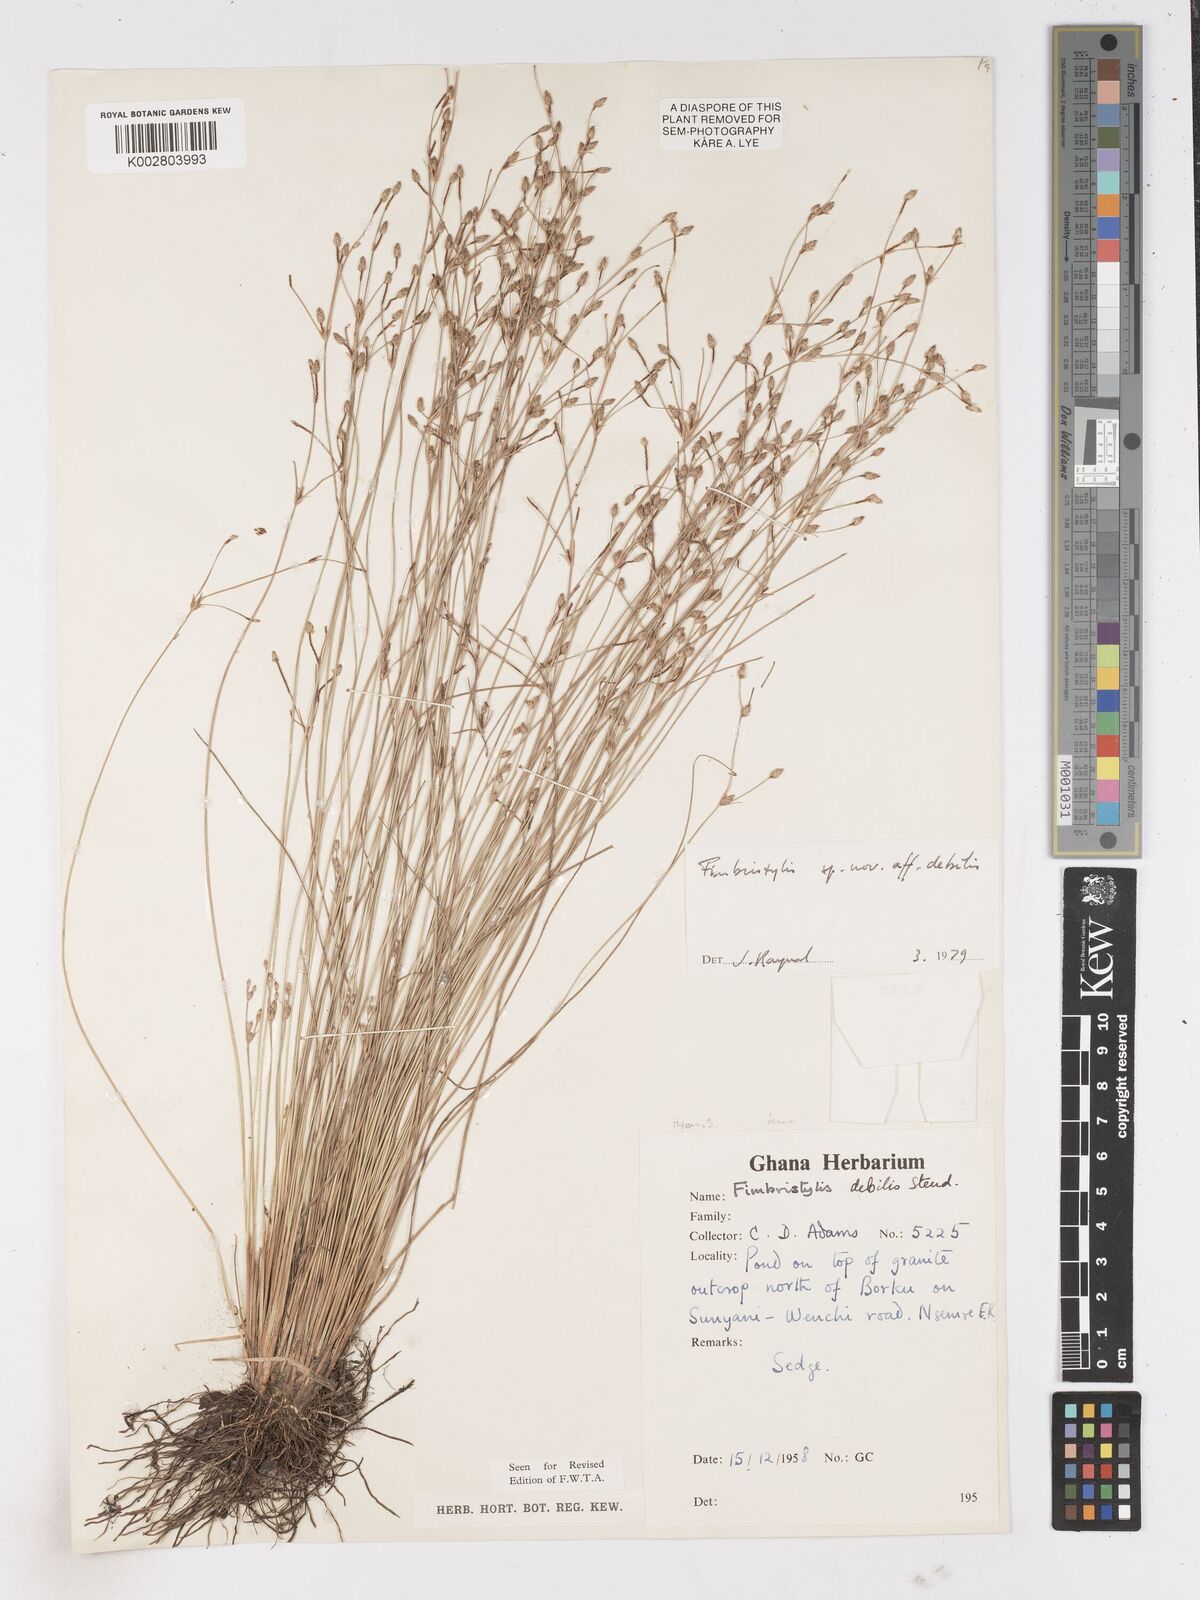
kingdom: Plantae
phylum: Tracheophyta
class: Liliopsida
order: Poales
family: Cyperaceae
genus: Fimbristylis
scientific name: Fimbristylis debilis
